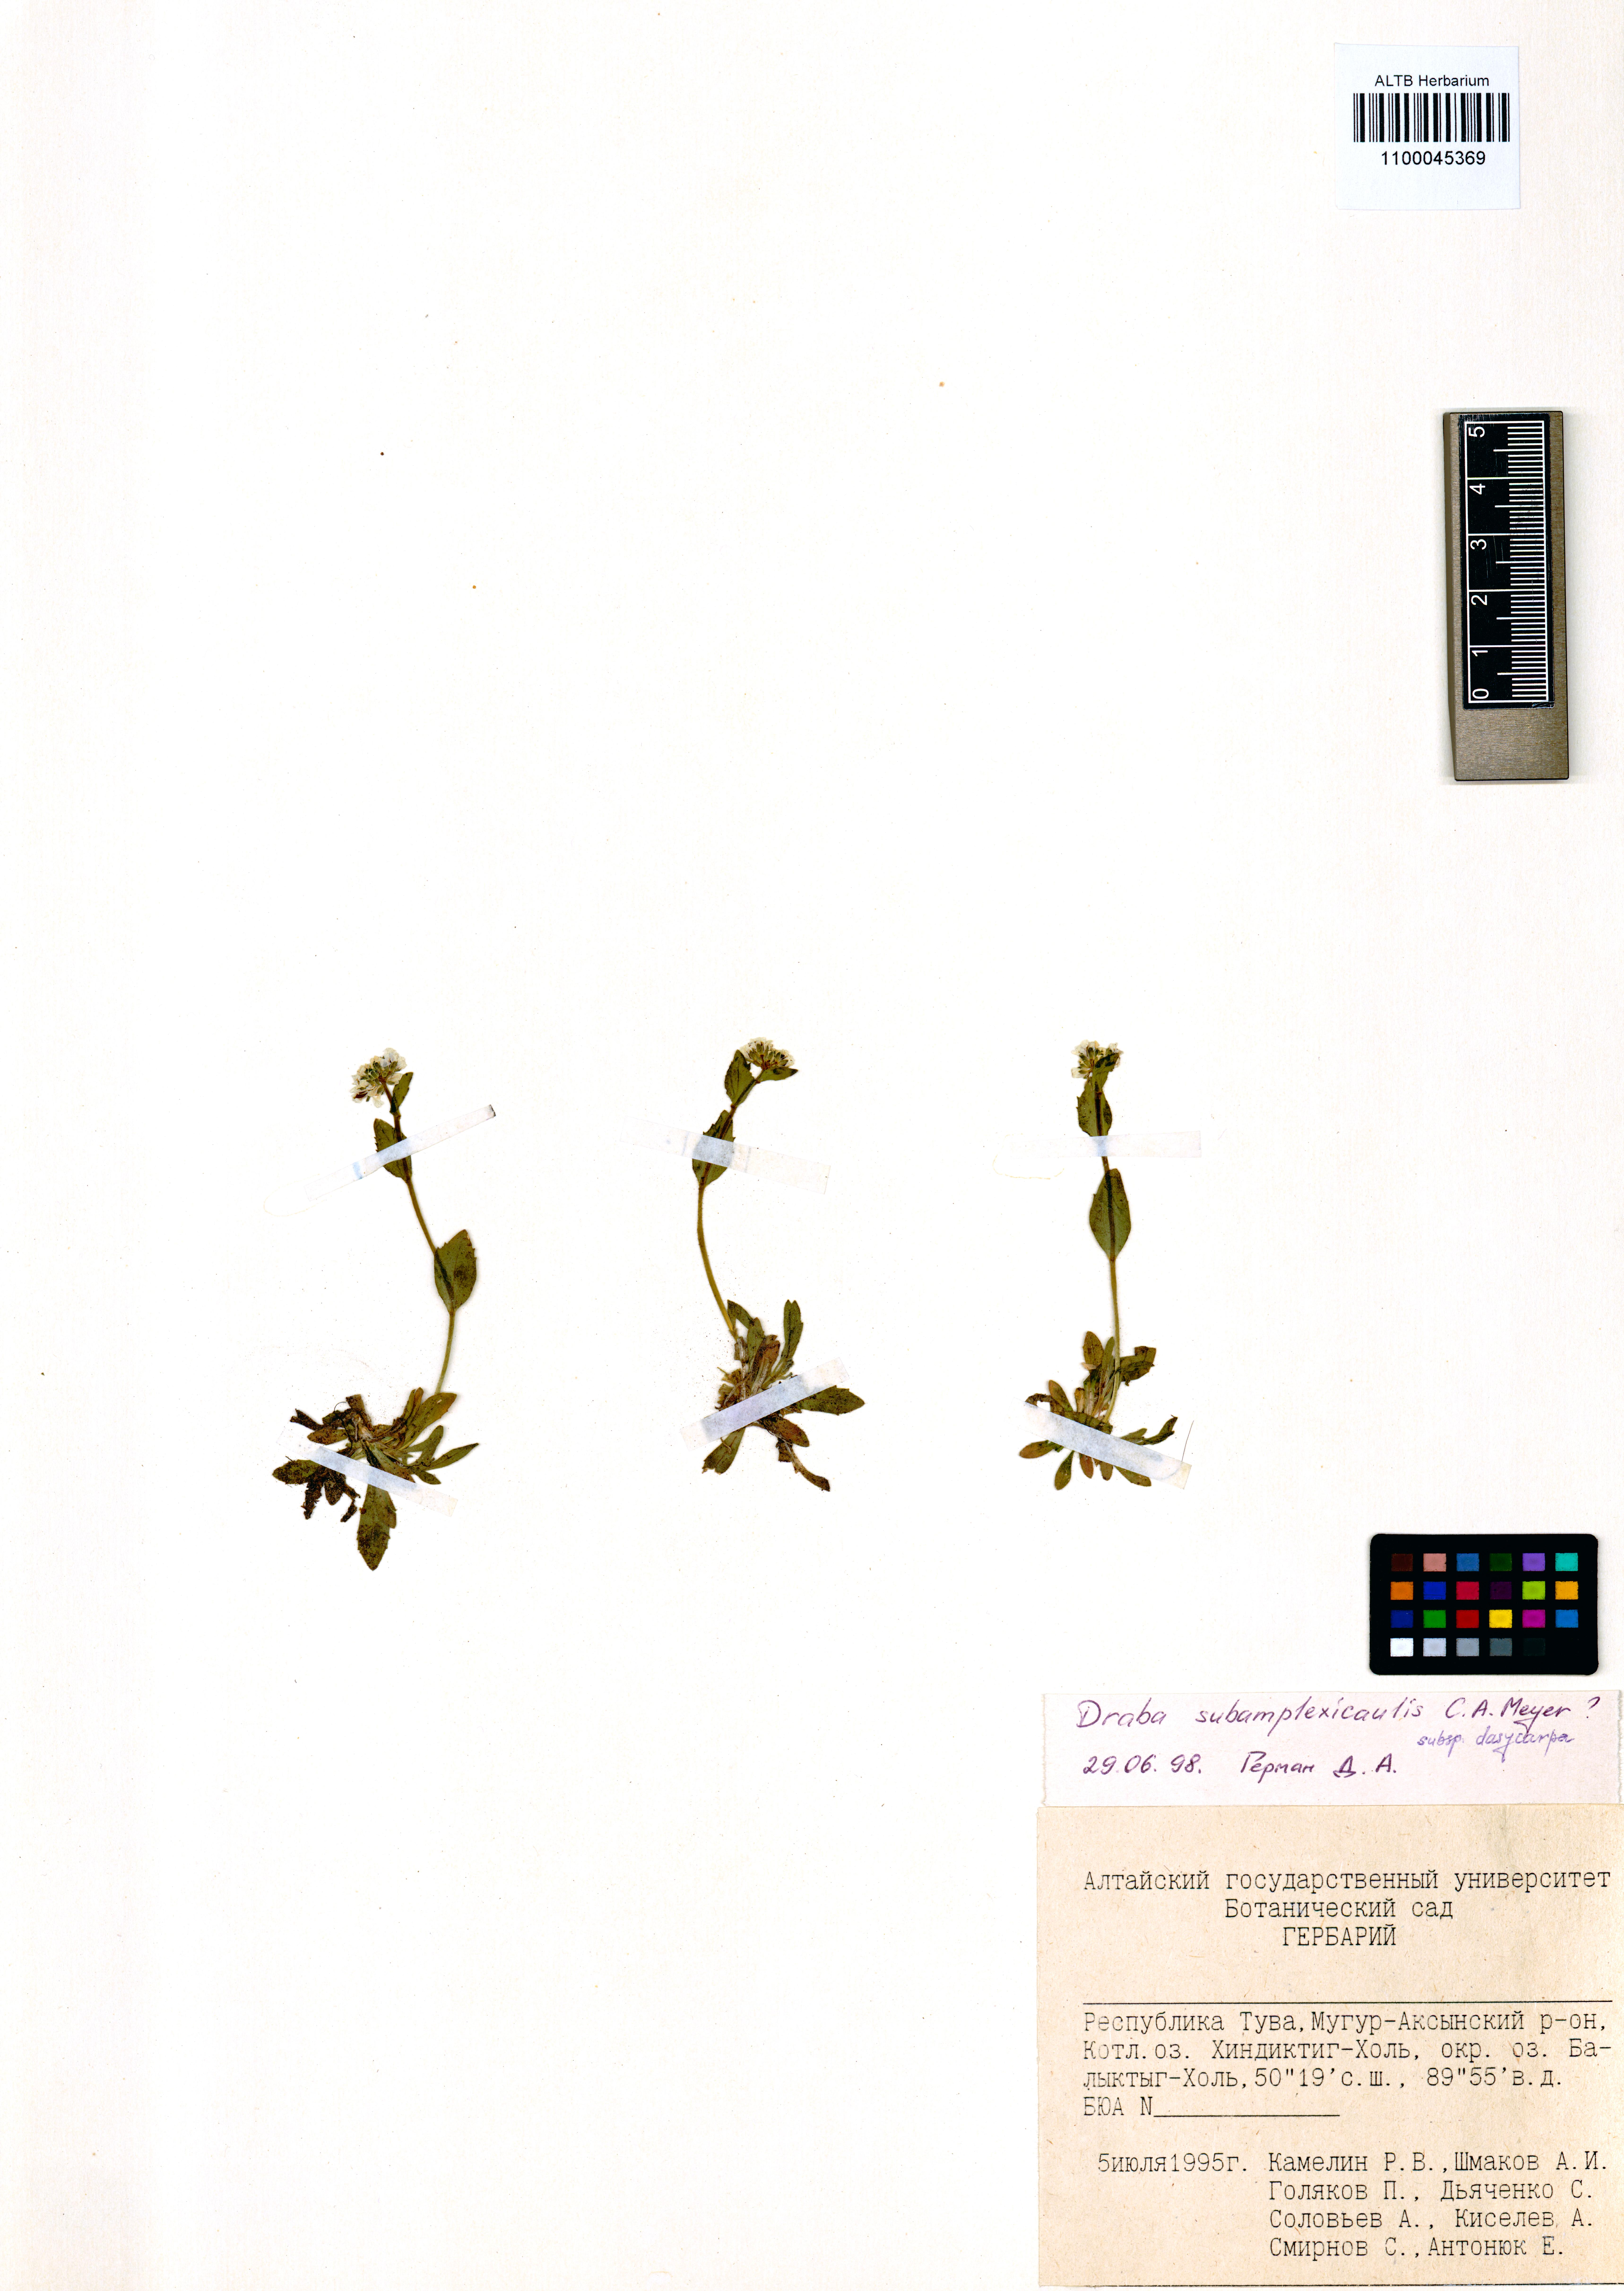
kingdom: Plantae
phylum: Tracheophyta
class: Magnoliopsida
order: Brassicales
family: Brassicaceae
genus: Draba
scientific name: Draba subamplexicaulis
